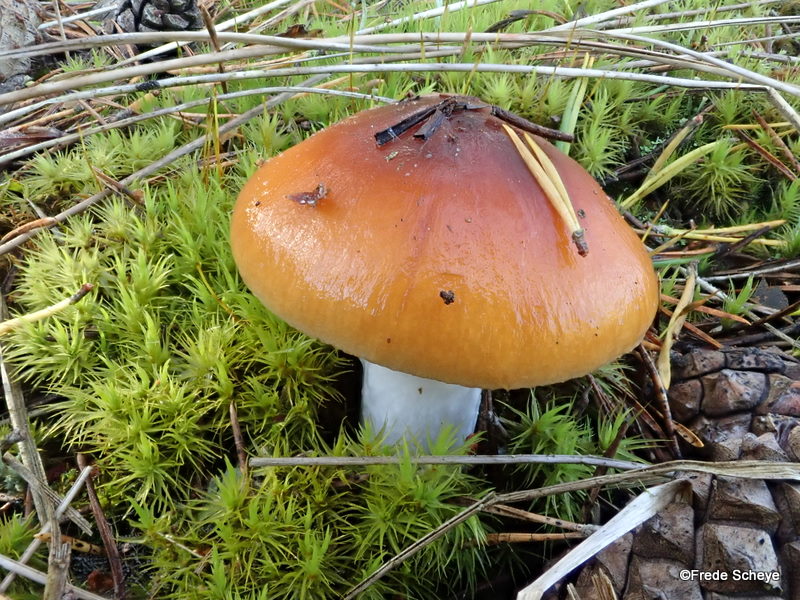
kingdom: Fungi
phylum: Basidiomycota
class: Agaricomycetes
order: Agaricales
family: Cortinariaceae
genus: Cortinarius
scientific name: Cortinarius mucosus
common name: kastaniebrun slørhat
